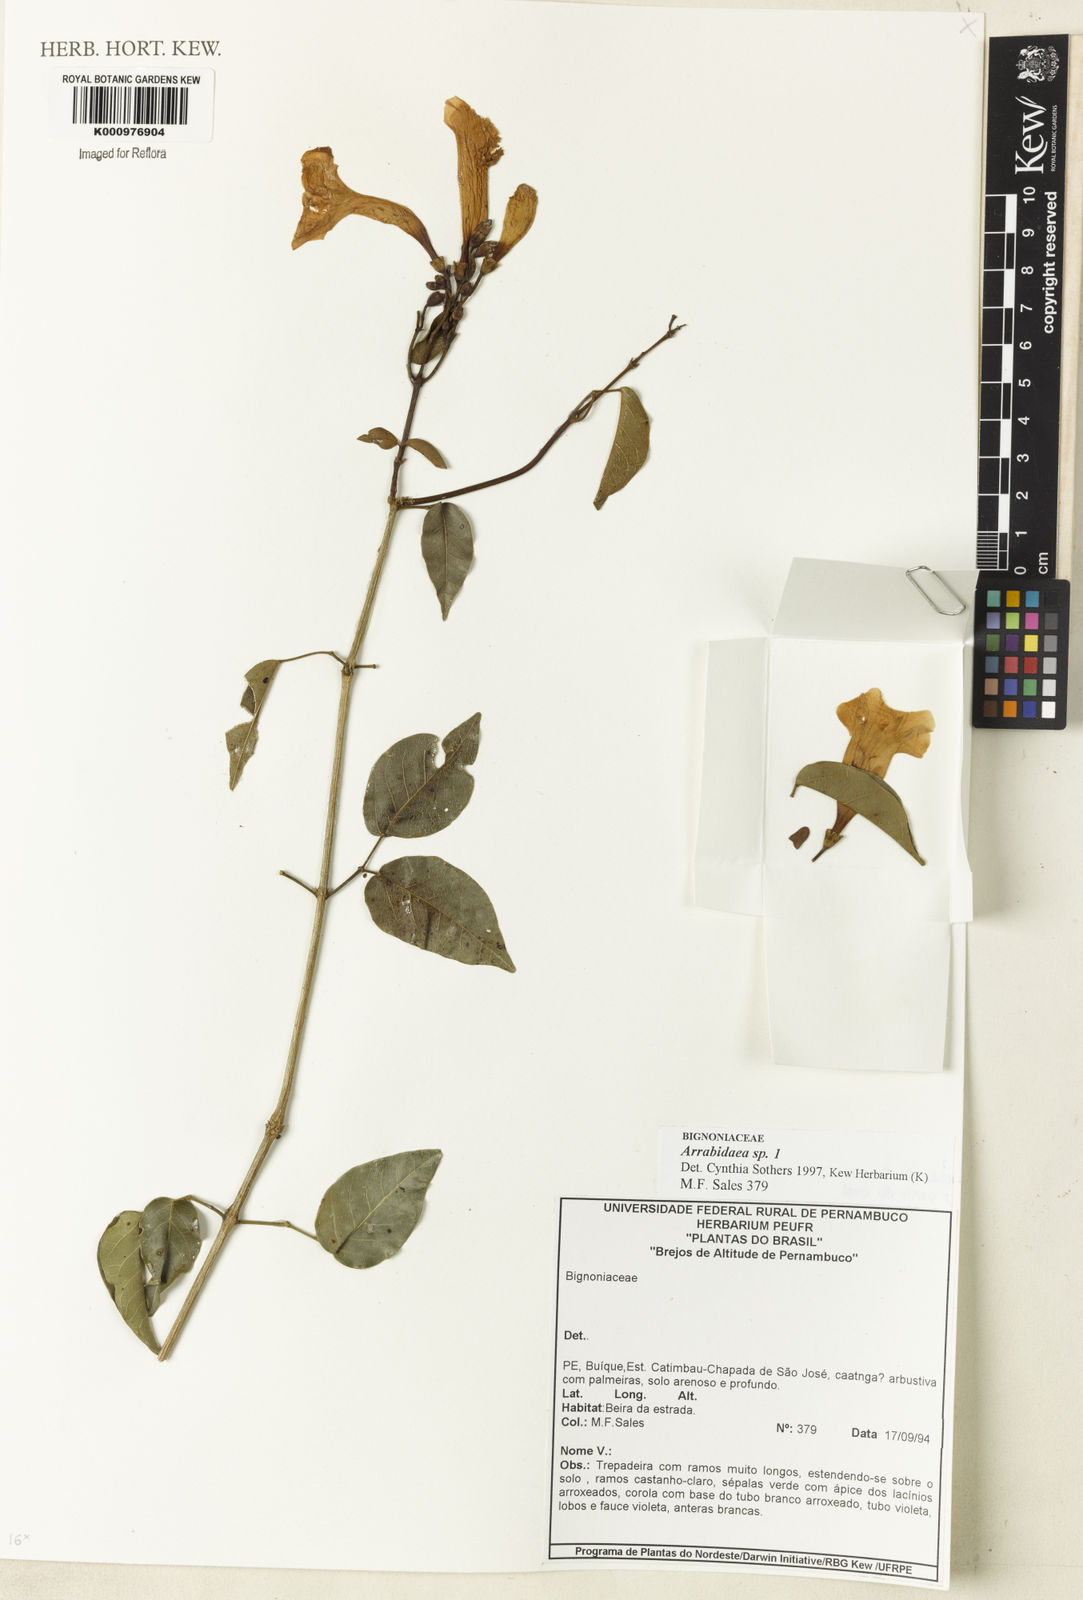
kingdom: Plantae
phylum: Tracheophyta
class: Magnoliopsida
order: Rosales
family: Rhamnaceae
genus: Arrabidaea
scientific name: Arrabidaea
